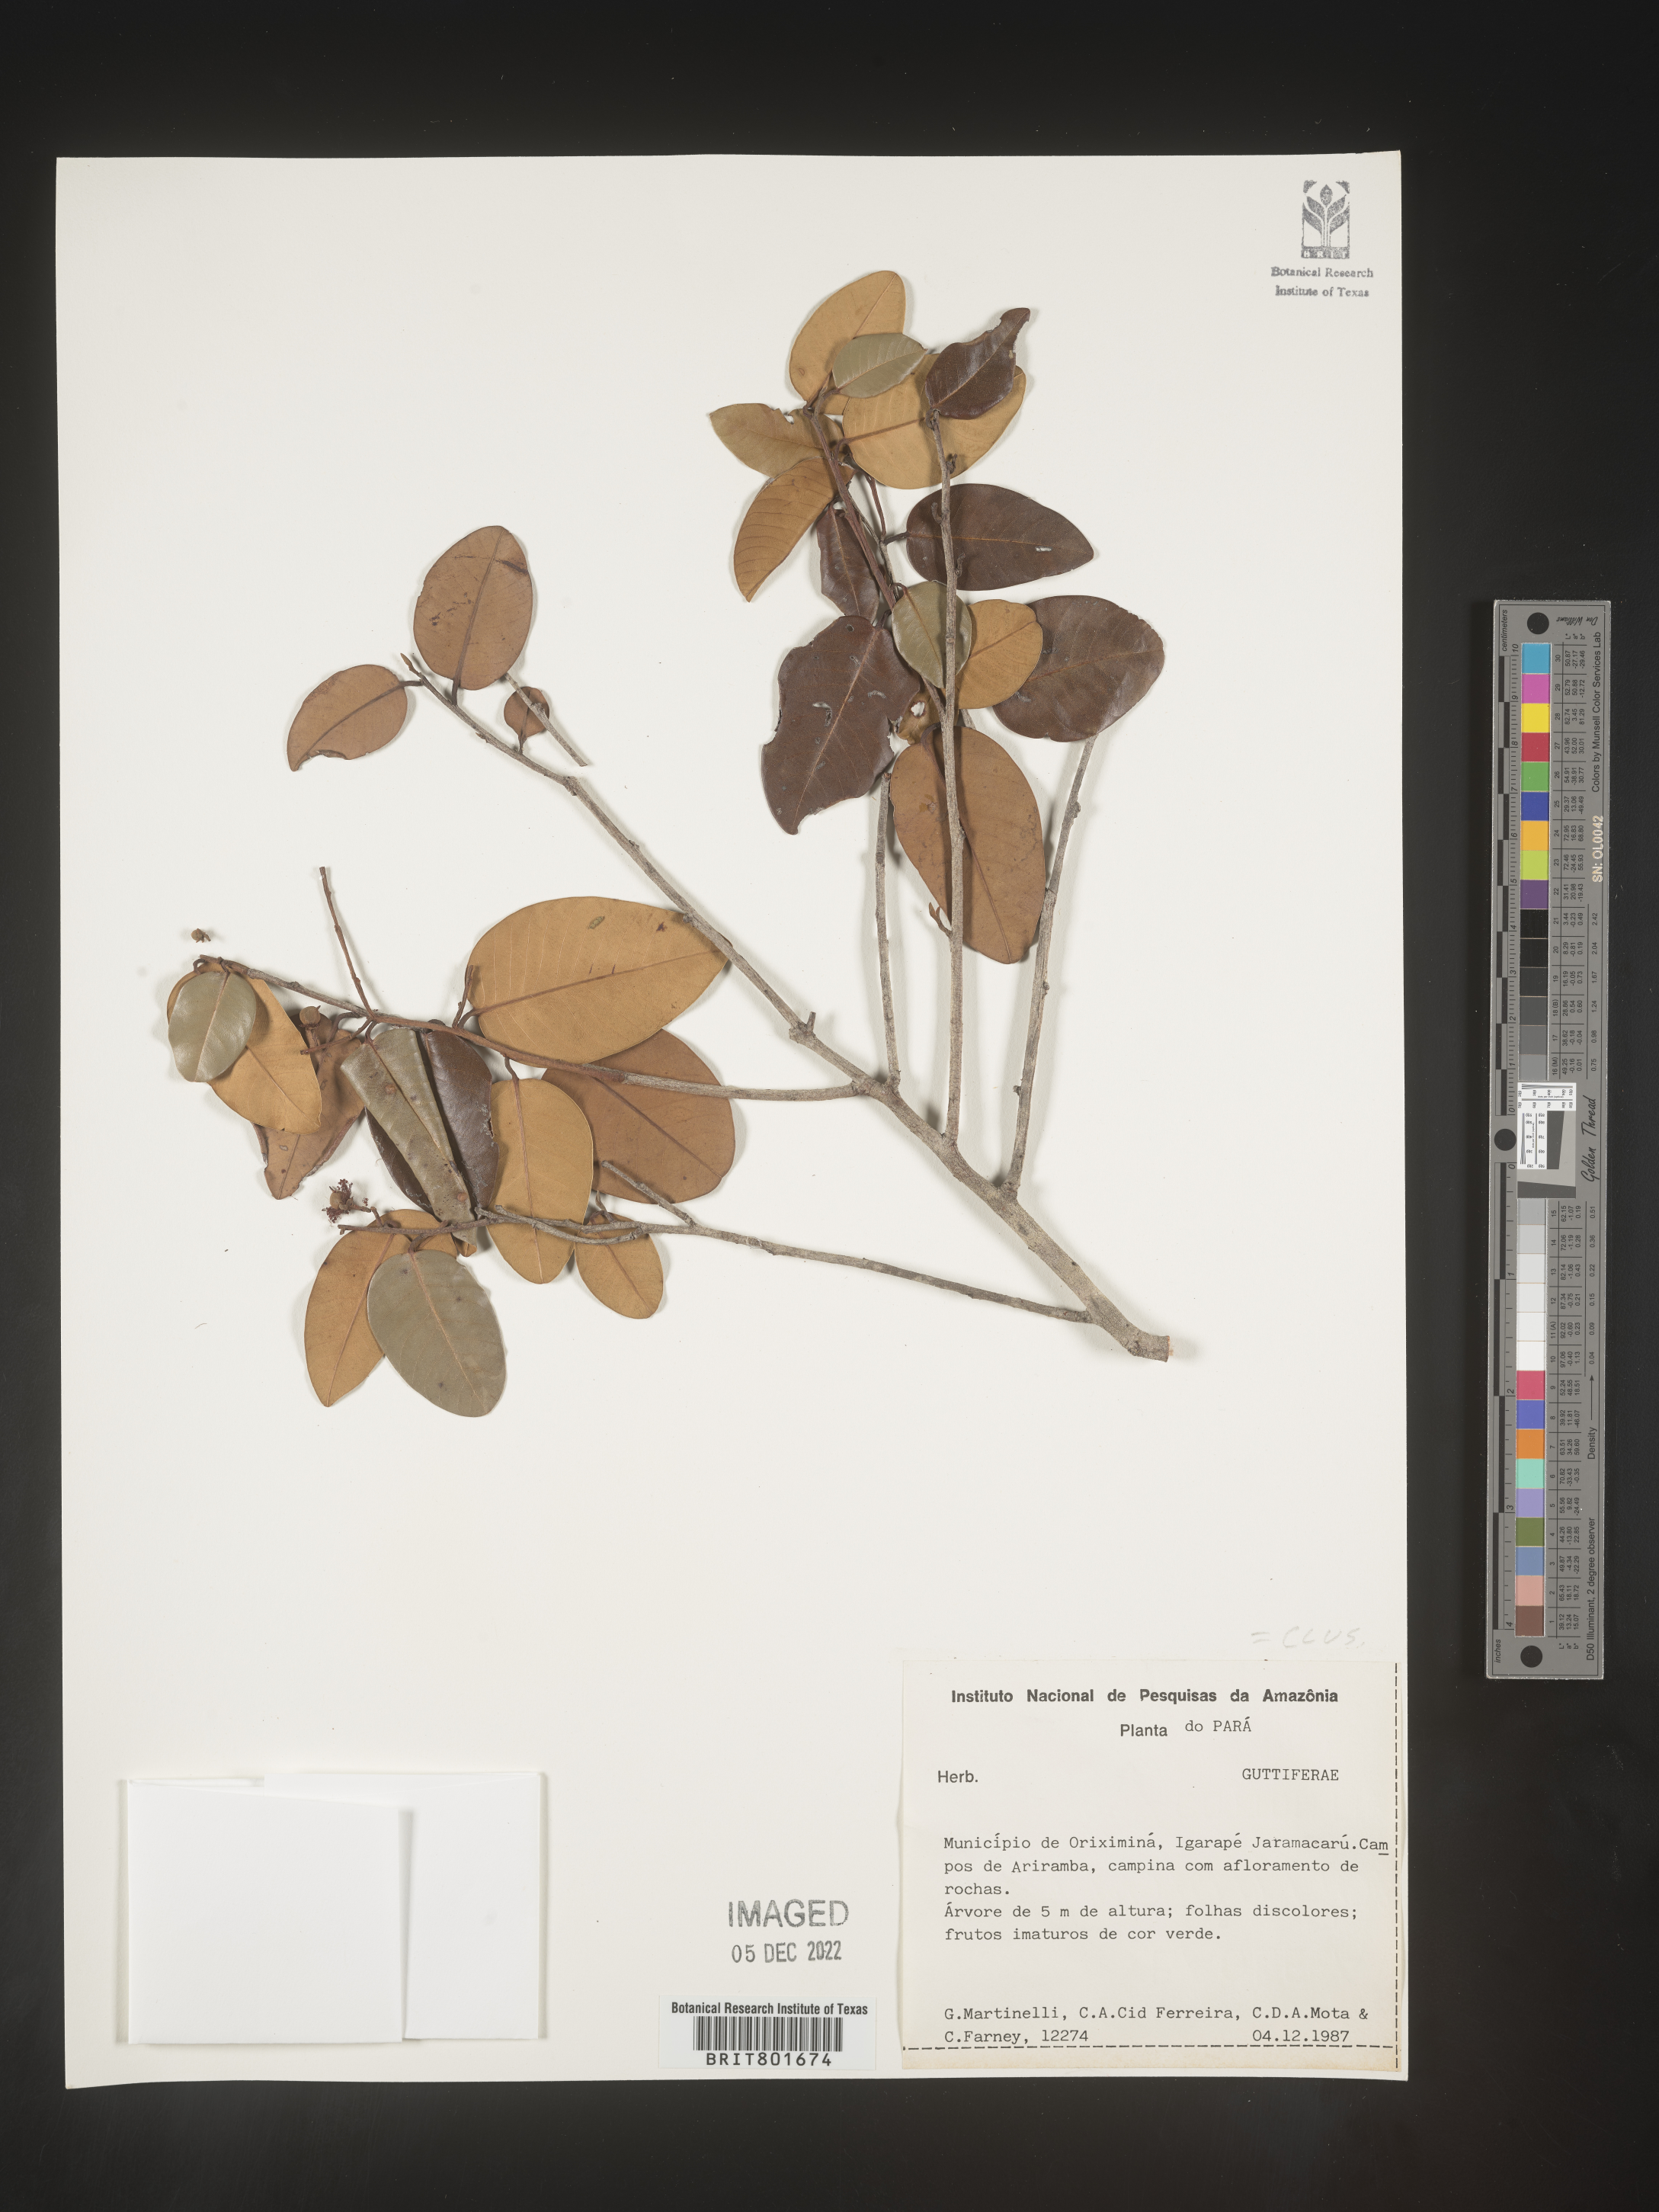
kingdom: Plantae
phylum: Tracheophyta
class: Magnoliopsida
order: Malpighiales
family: Clusiaceae
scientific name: Clusiaceae
